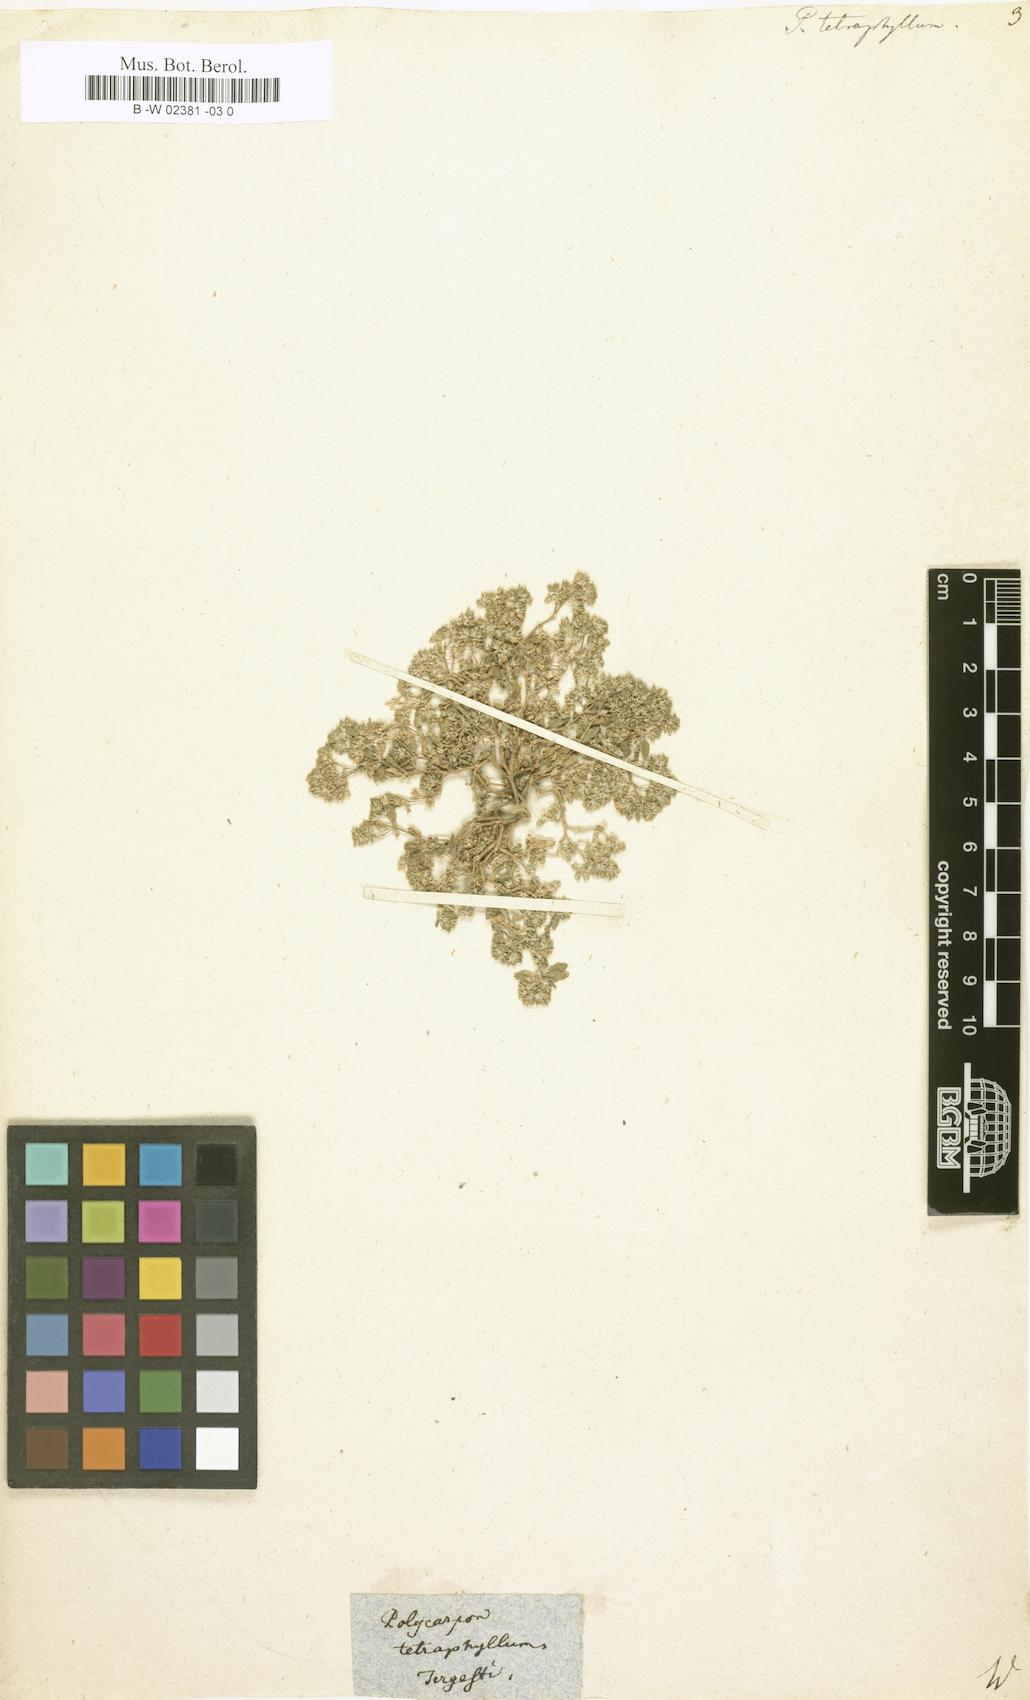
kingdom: Plantae
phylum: Tracheophyta
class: Magnoliopsida
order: Caryophyllales
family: Caryophyllaceae
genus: Polycarpon
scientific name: Polycarpon tetraphyllum
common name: Four-leaved all-seed
